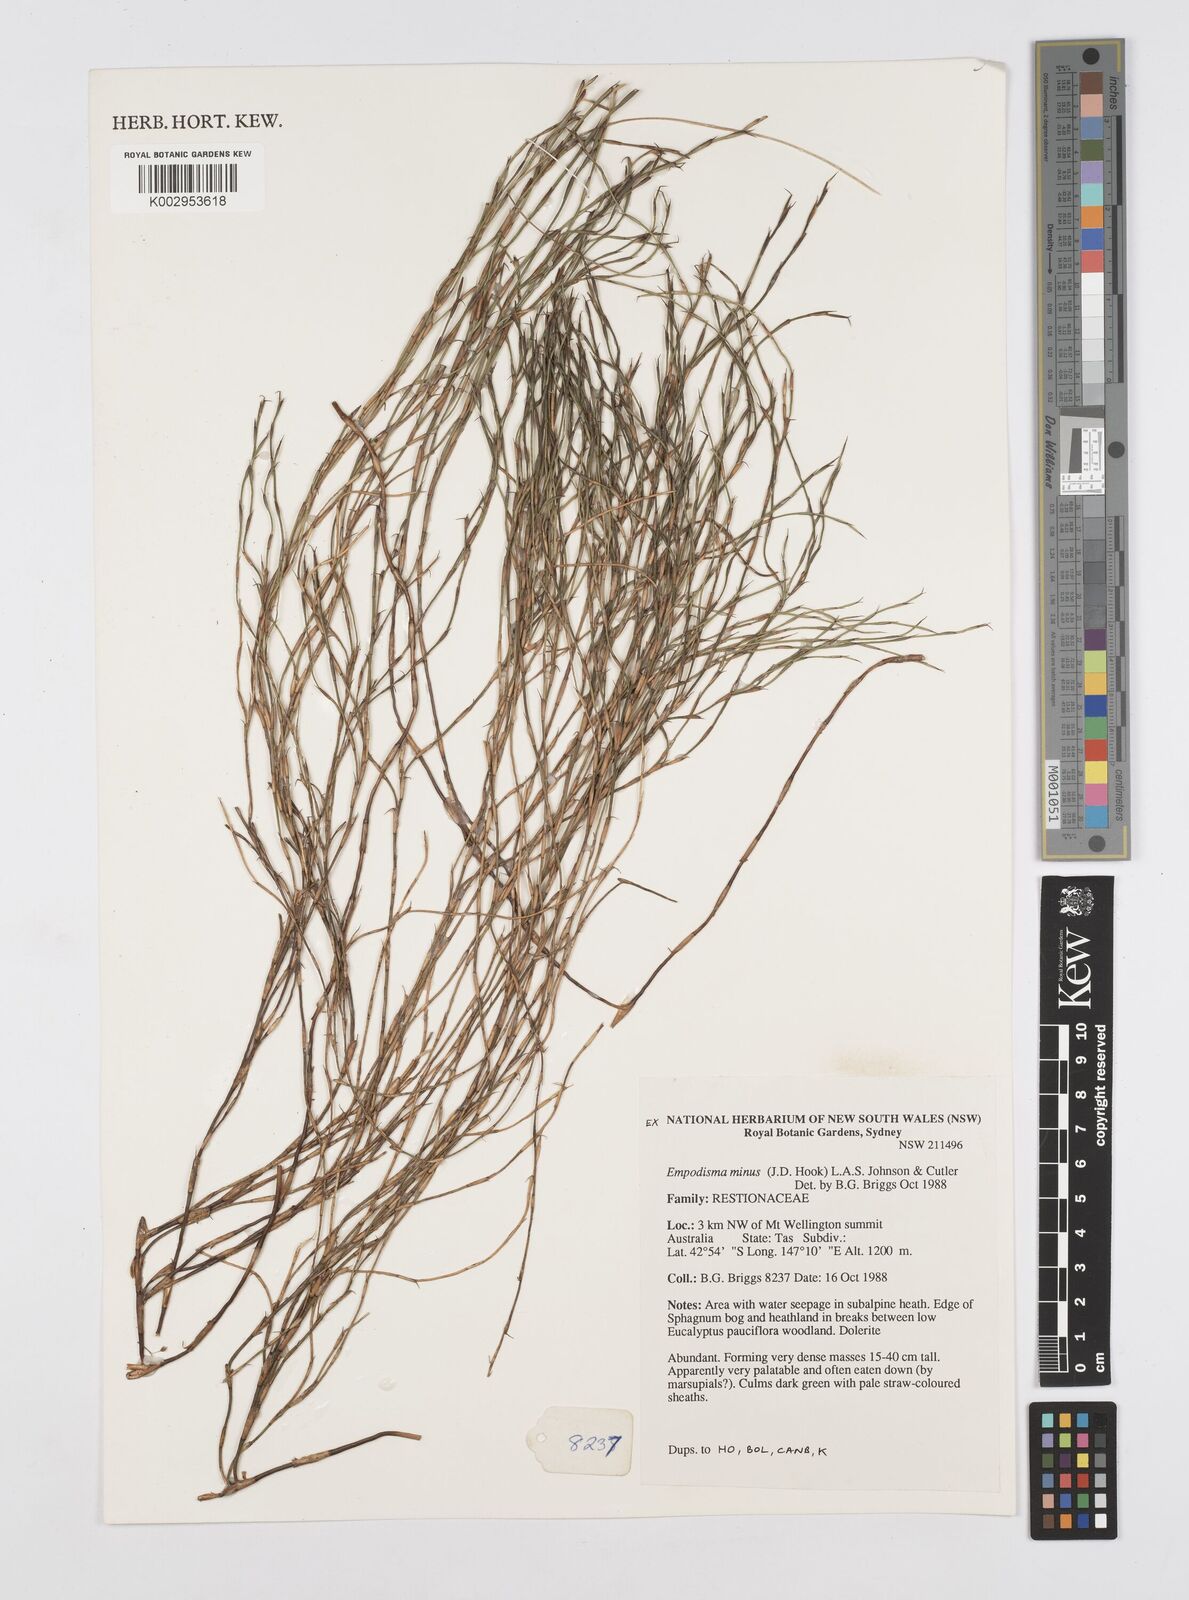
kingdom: Plantae
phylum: Tracheophyta
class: Liliopsida
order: Poales
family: Restionaceae
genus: Empodisma
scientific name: Empodisma minus
